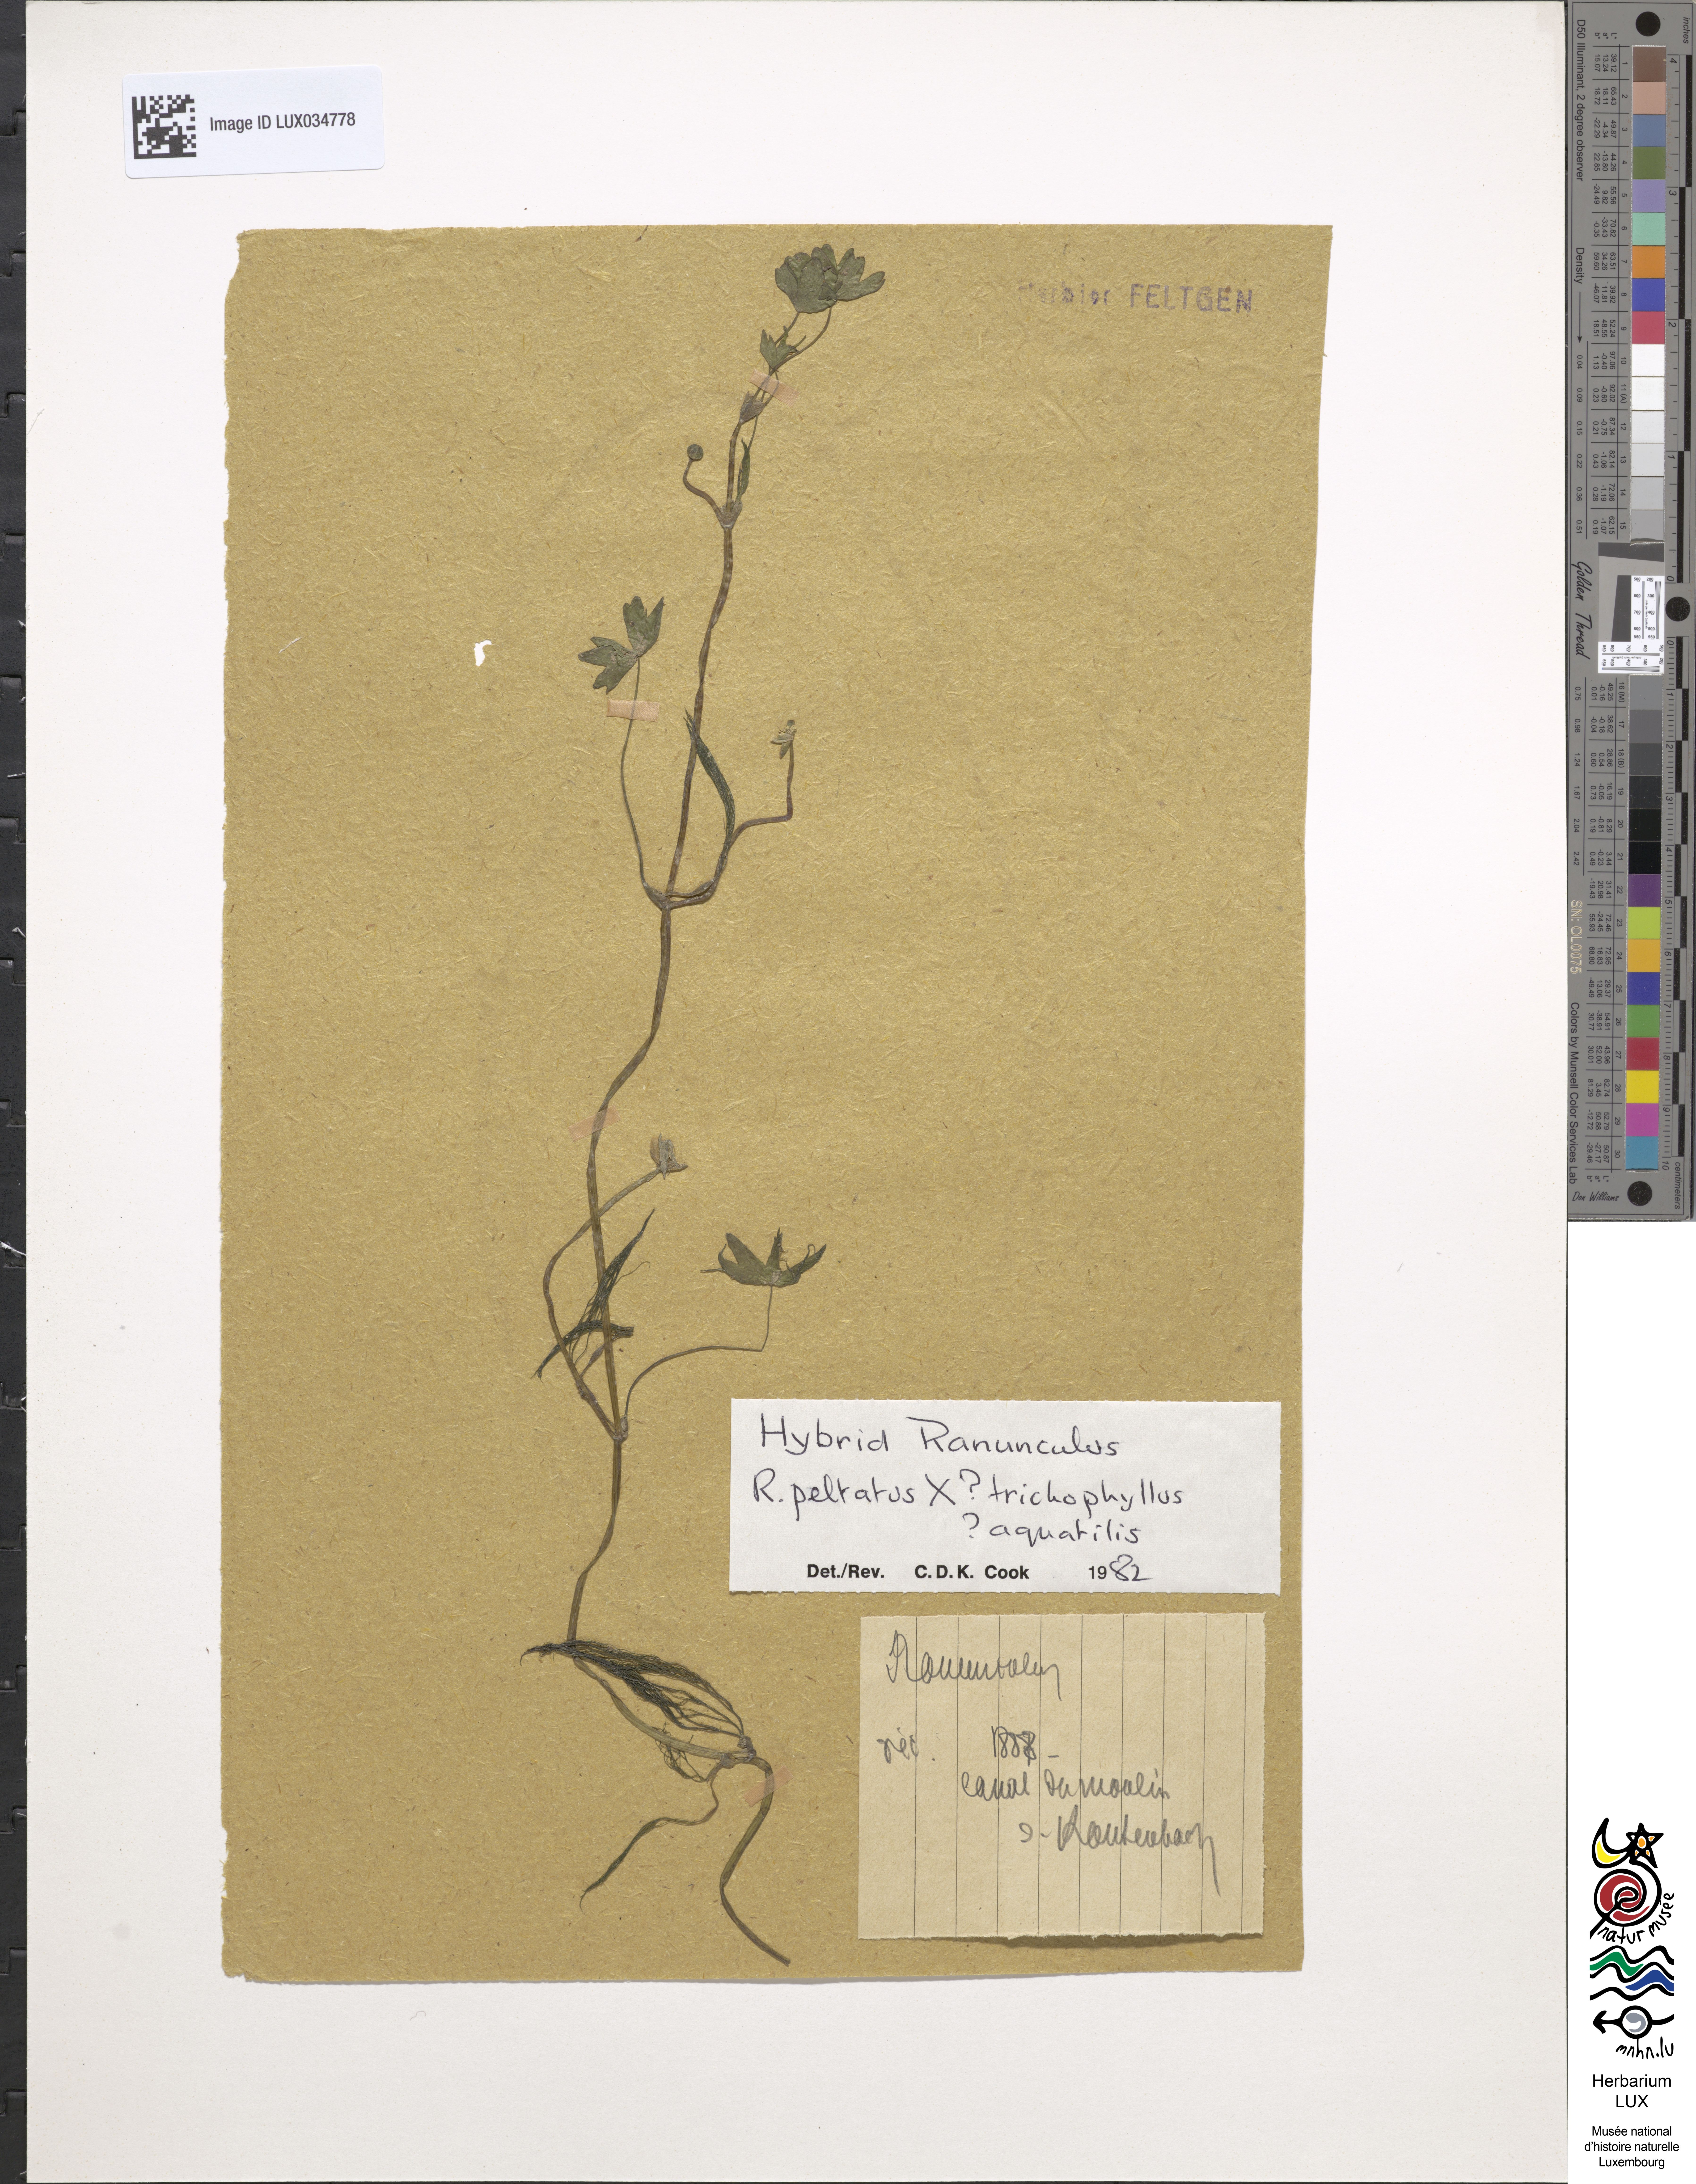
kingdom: Plantae
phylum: Tracheophyta
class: Magnoliopsida
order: Ranunculales
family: Ranunculaceae
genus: Ranunculus
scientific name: Ranunculus peltatus
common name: Pond water-crowfoot
